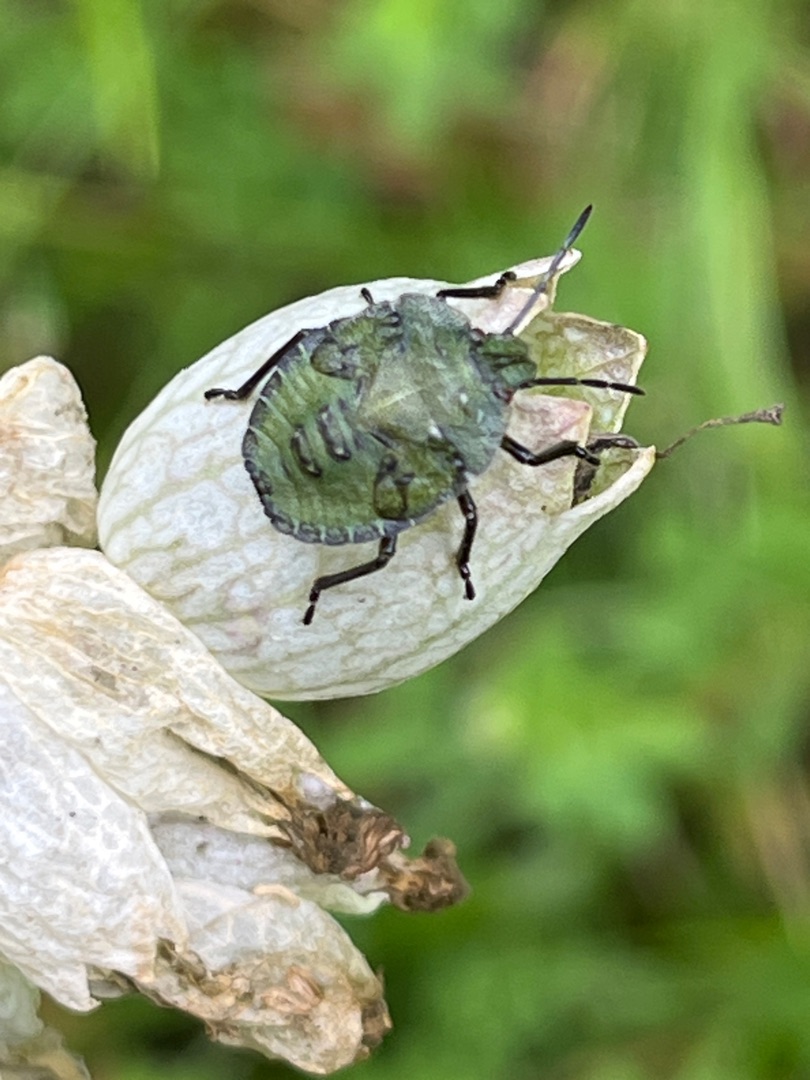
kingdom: Animalia
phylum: Arthropoda
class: Insecta
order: Hemiptera
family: Pentatomidae
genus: Palomena
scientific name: Palomena prasina
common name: Grøn bredtæge
